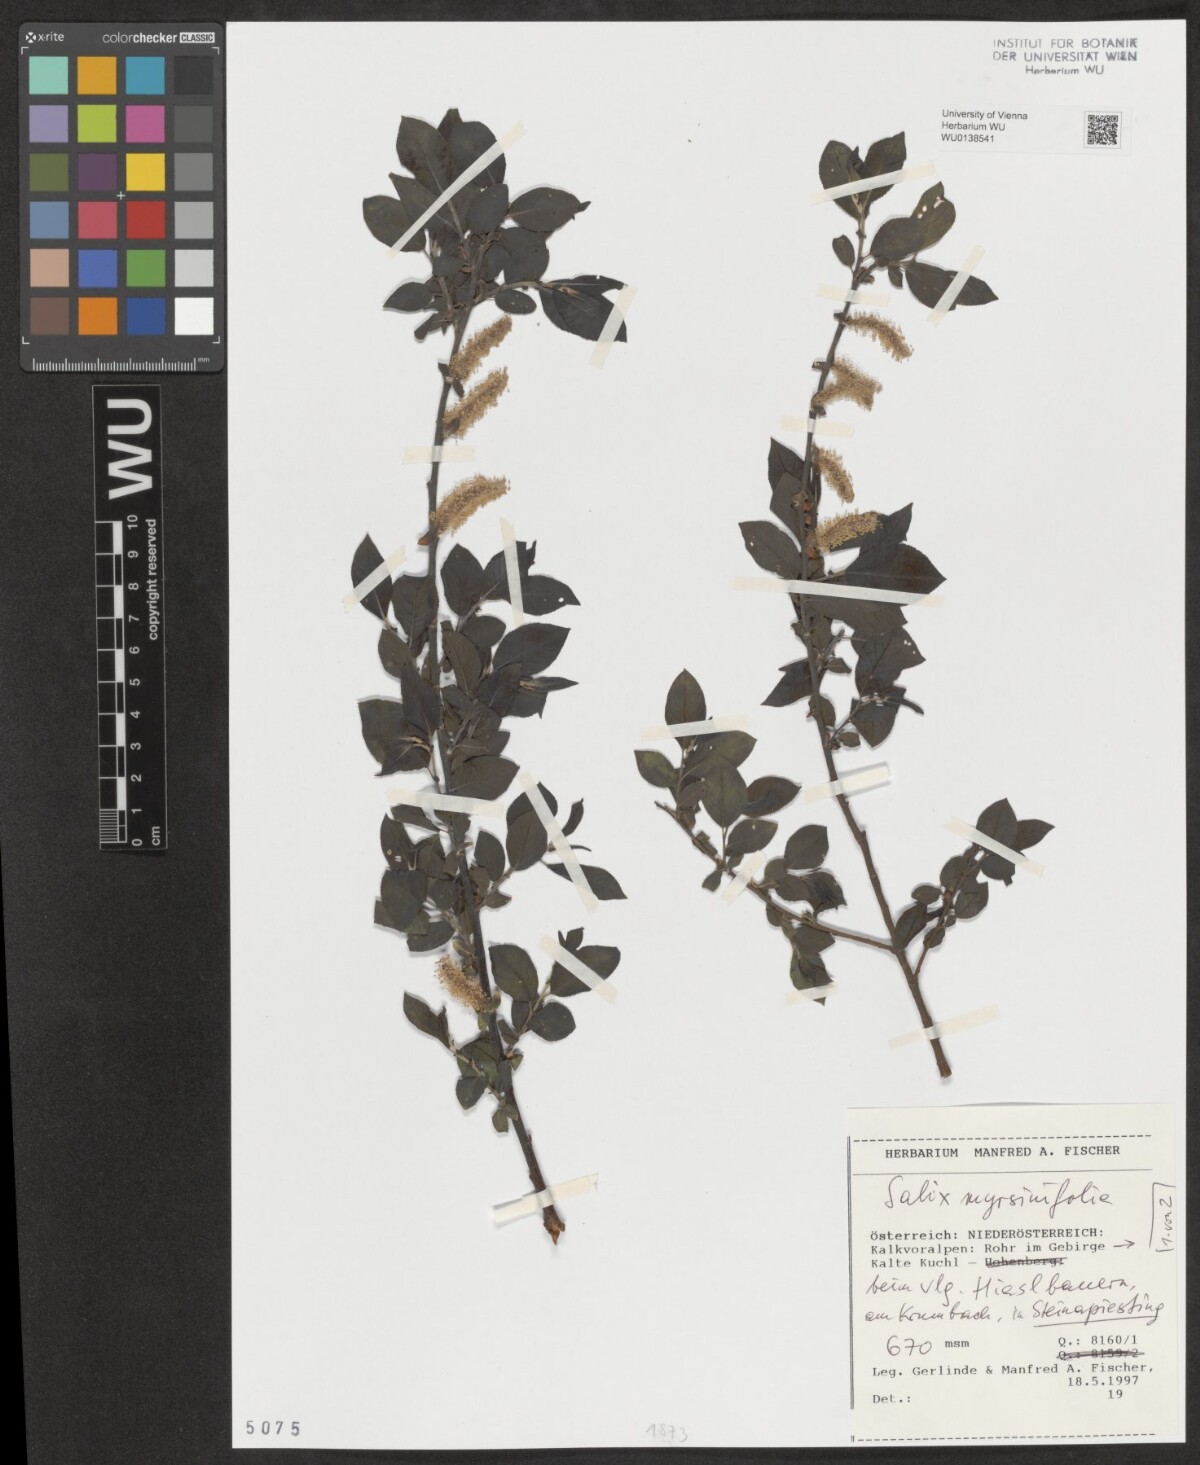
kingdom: Plantae
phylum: Tracheophyta
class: Magnoliopsida
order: Malpighiales
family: Salicaceae
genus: Salix
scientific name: Salix myrsinifolia
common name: Dark-leaved willow
